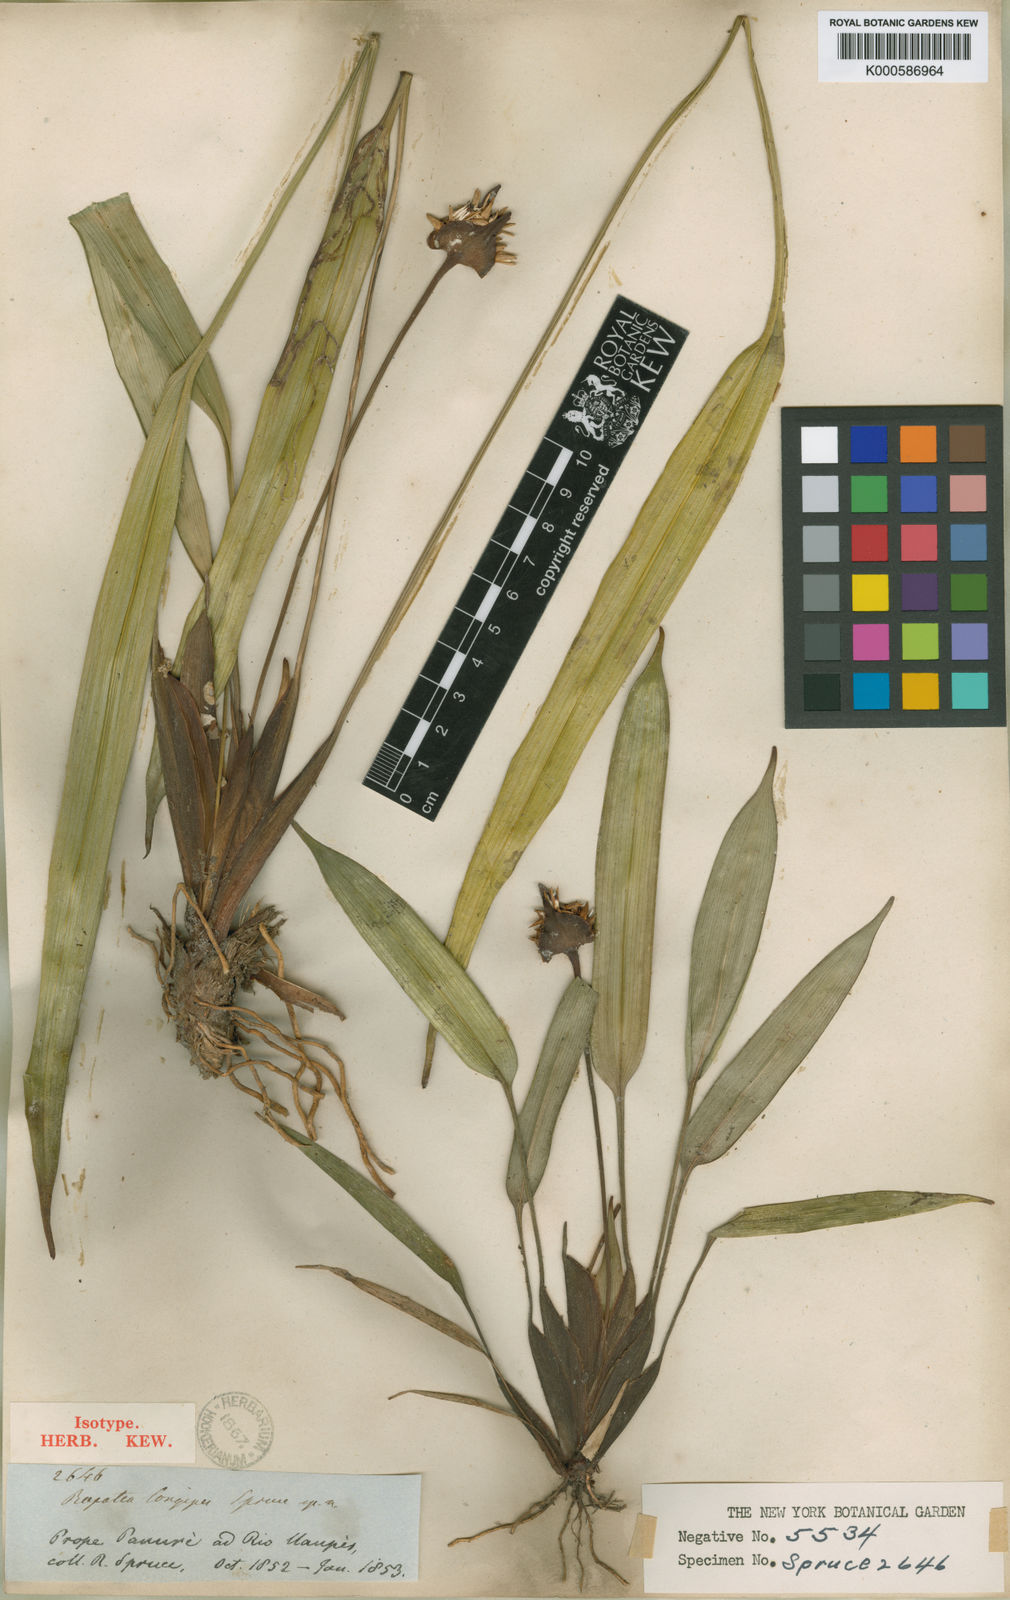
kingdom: Plantae
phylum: Tracheophyta
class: Liliopsida
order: Poales
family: Rapateaceae
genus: Rapatea
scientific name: Rapatea
